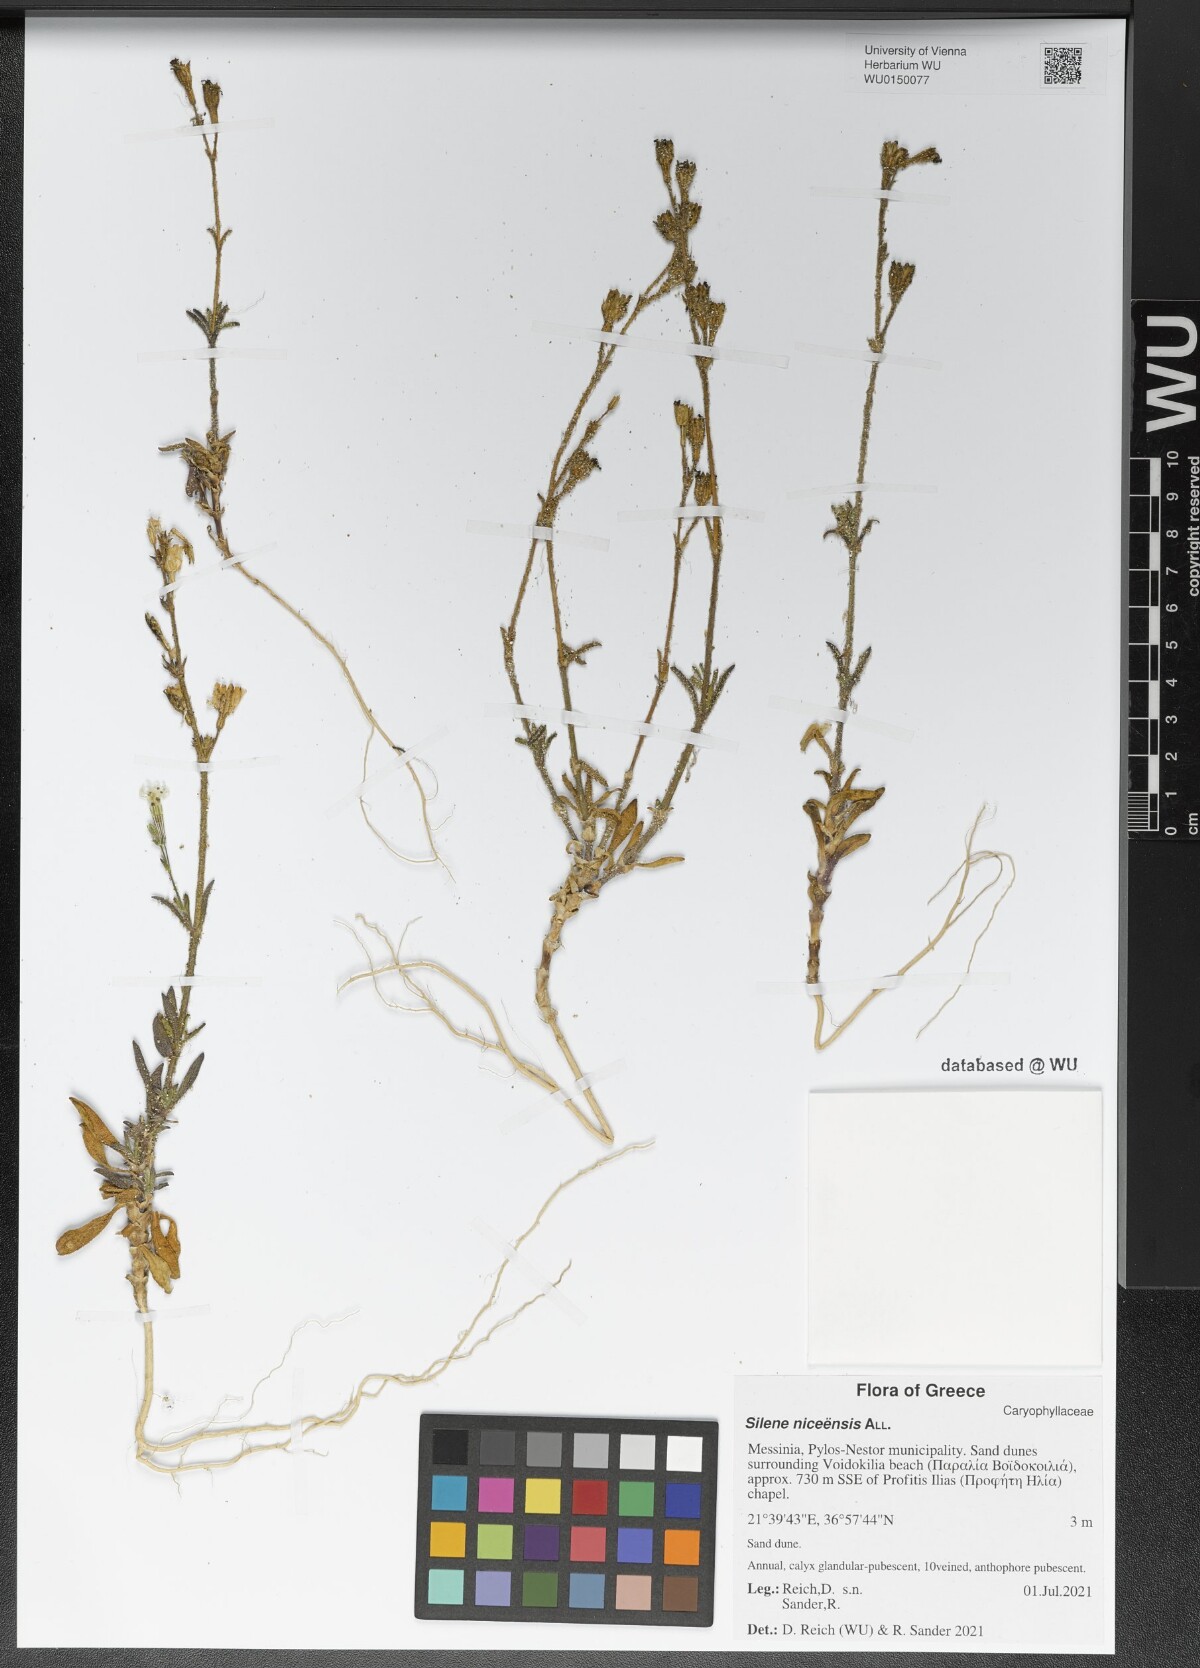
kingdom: Plantae
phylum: Tracheophyta
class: Magnoliopsida
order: Caryophyllales
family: Caryophyllaceae
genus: Silene
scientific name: Silene nicaeensis
